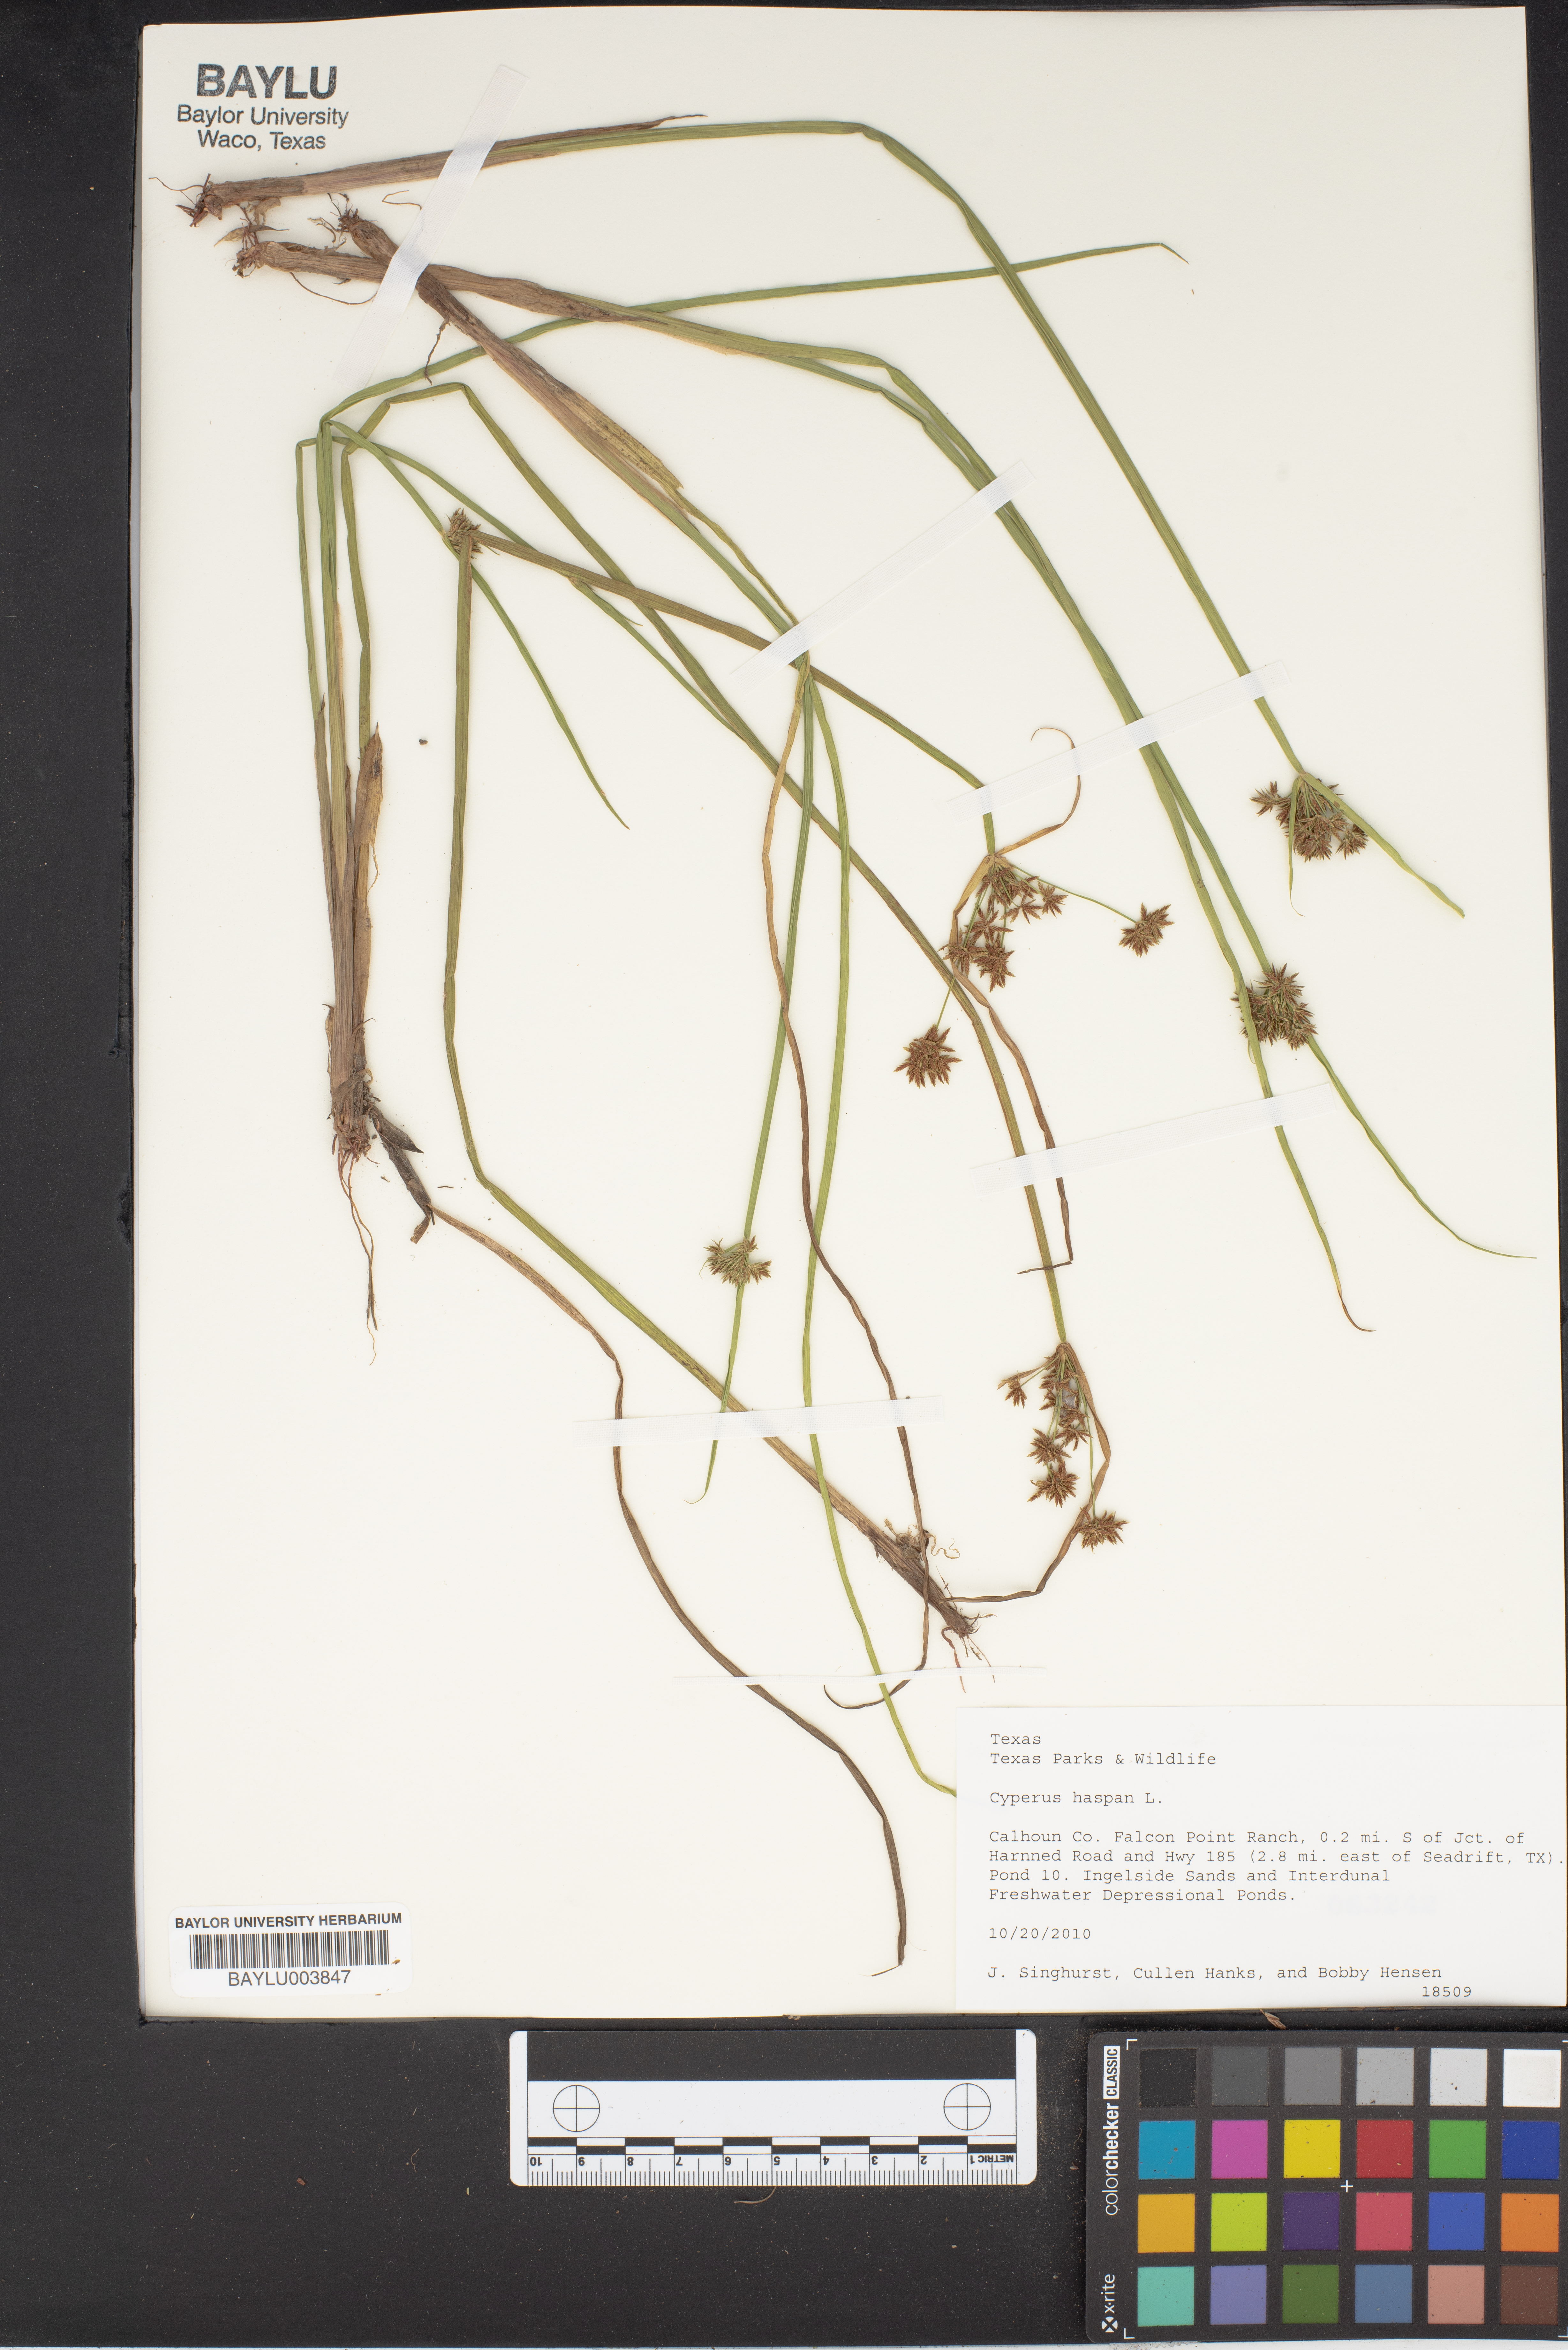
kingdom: Plantae
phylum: Tracheophyta
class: Liliopsida
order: Poales
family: Cyperaceae
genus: Cyperus
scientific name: Cyperus haspan
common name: Haspan flatsedge
